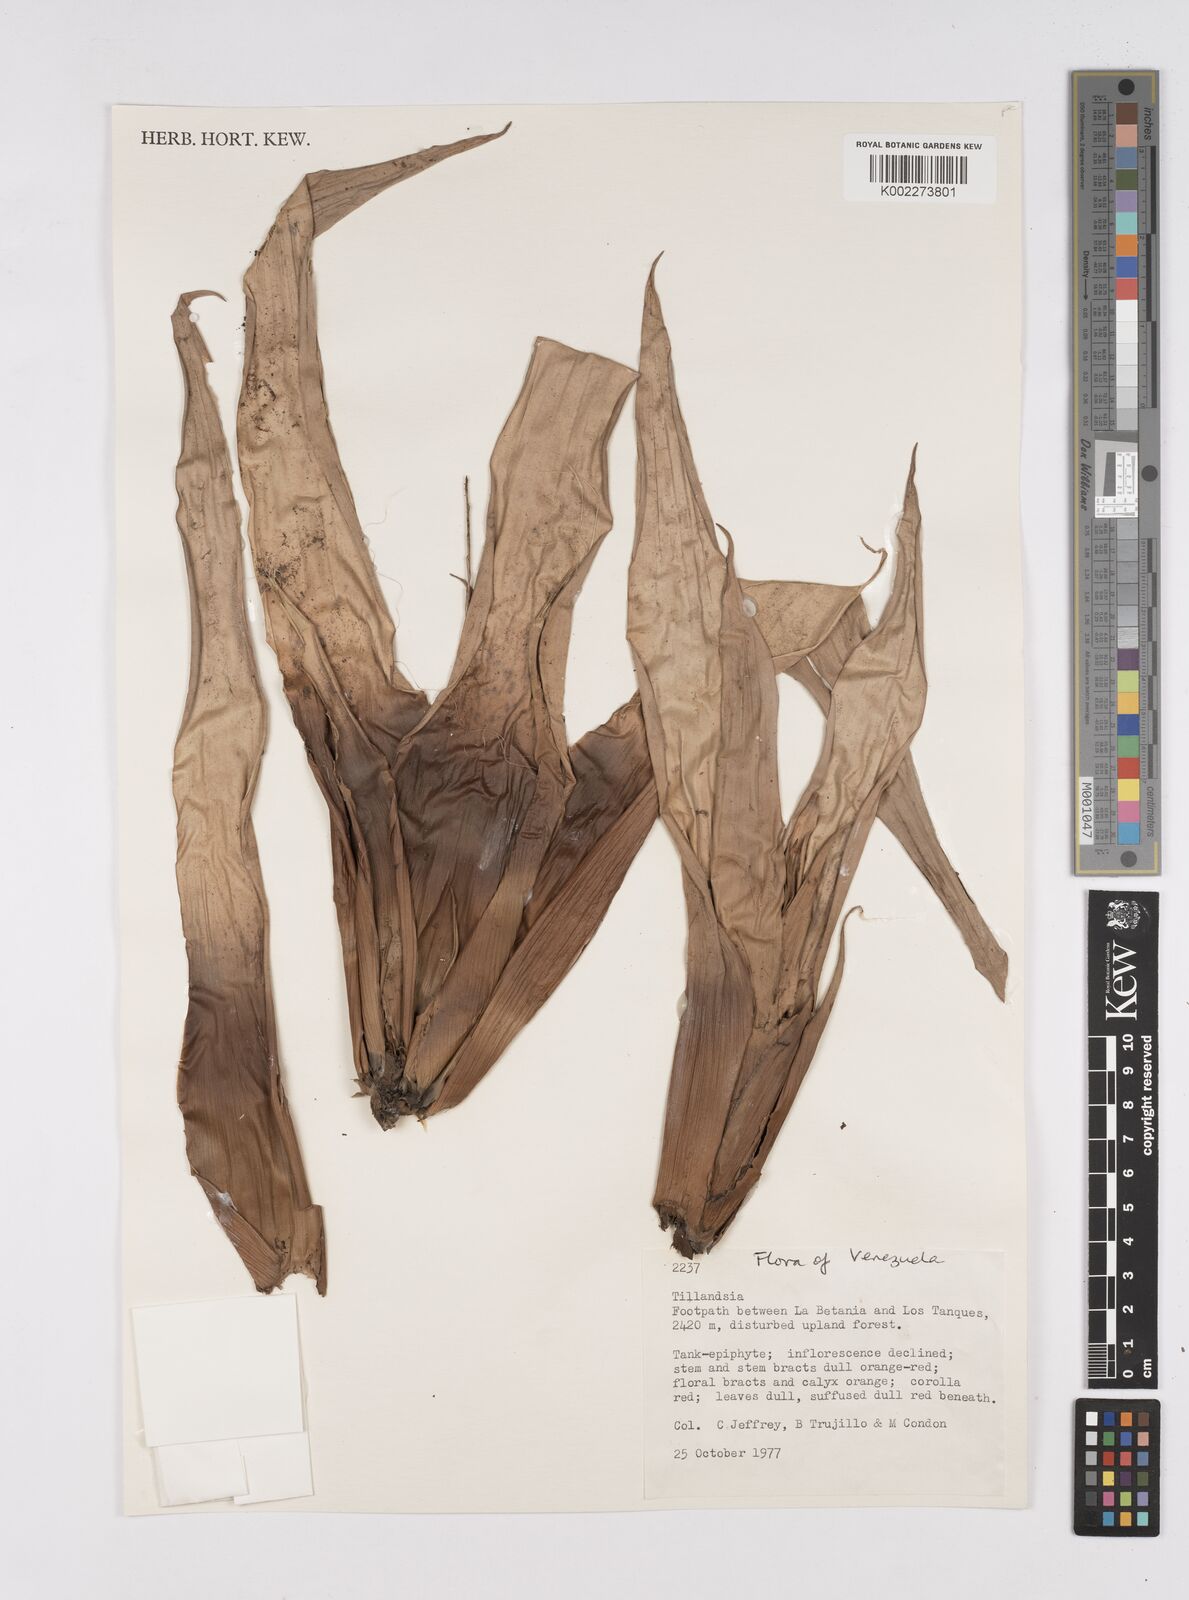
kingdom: Plantae
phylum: Tracheophyta
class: Liliopsida
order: Poales
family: Bromeliaceae
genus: Tillandsia
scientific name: Tillandsia
